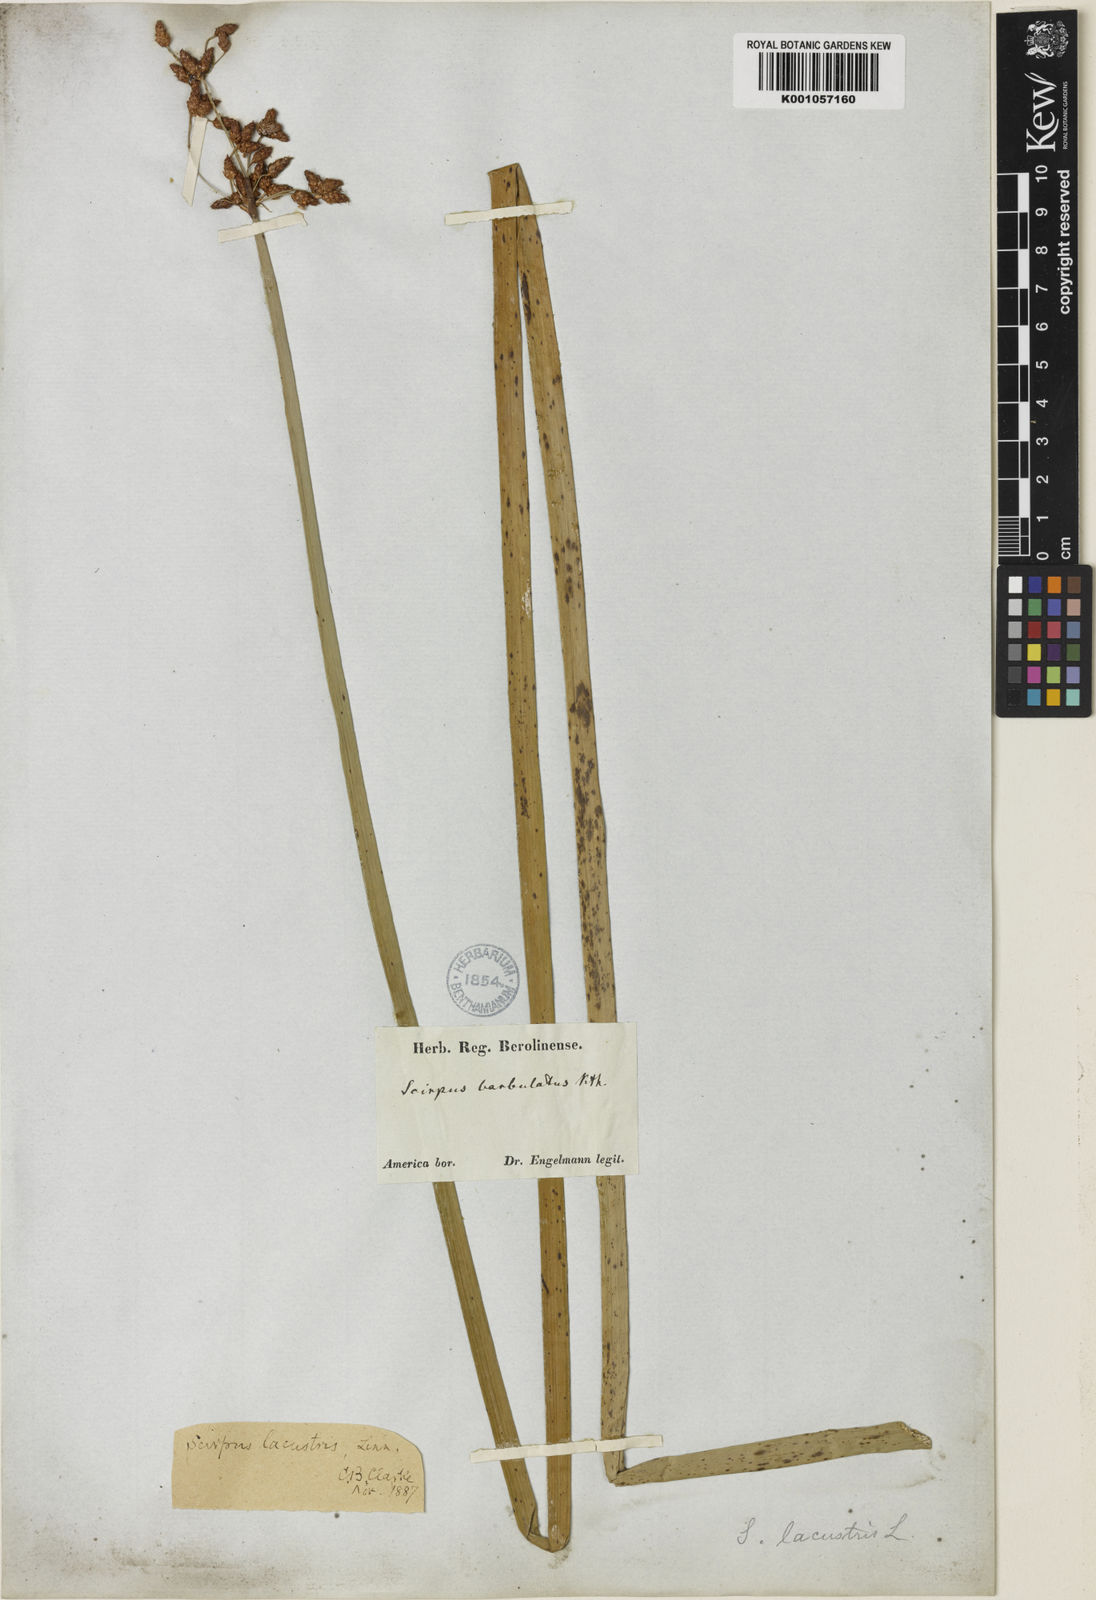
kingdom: Plantae
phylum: Tracheophyta
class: Liliopsida
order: Poales
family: Cyperaceae
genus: Schoenoplectus
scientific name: Schoenoplectus lacustris
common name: Common club-rush
